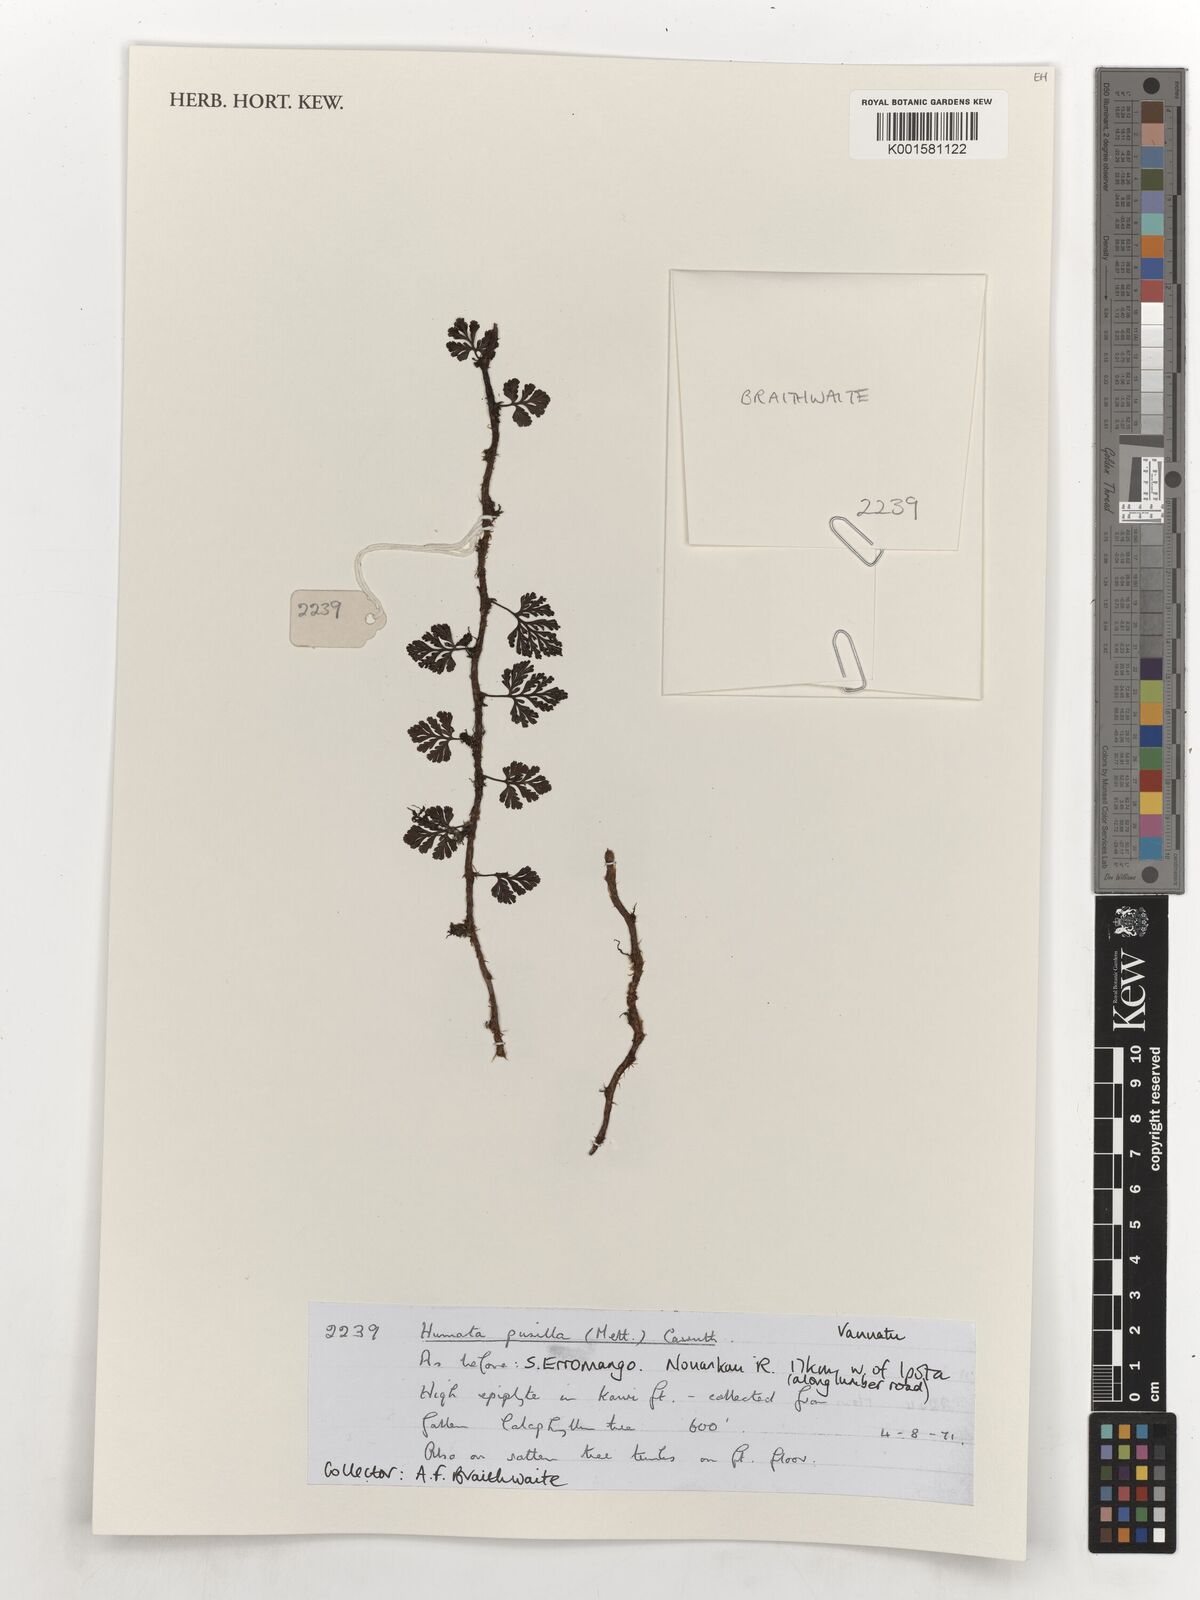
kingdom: Plantae
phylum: Tracheophyta
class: Polypodiopsida
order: Polypodiales
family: Davalliaceae
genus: Davallia
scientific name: Davallia pusilla
